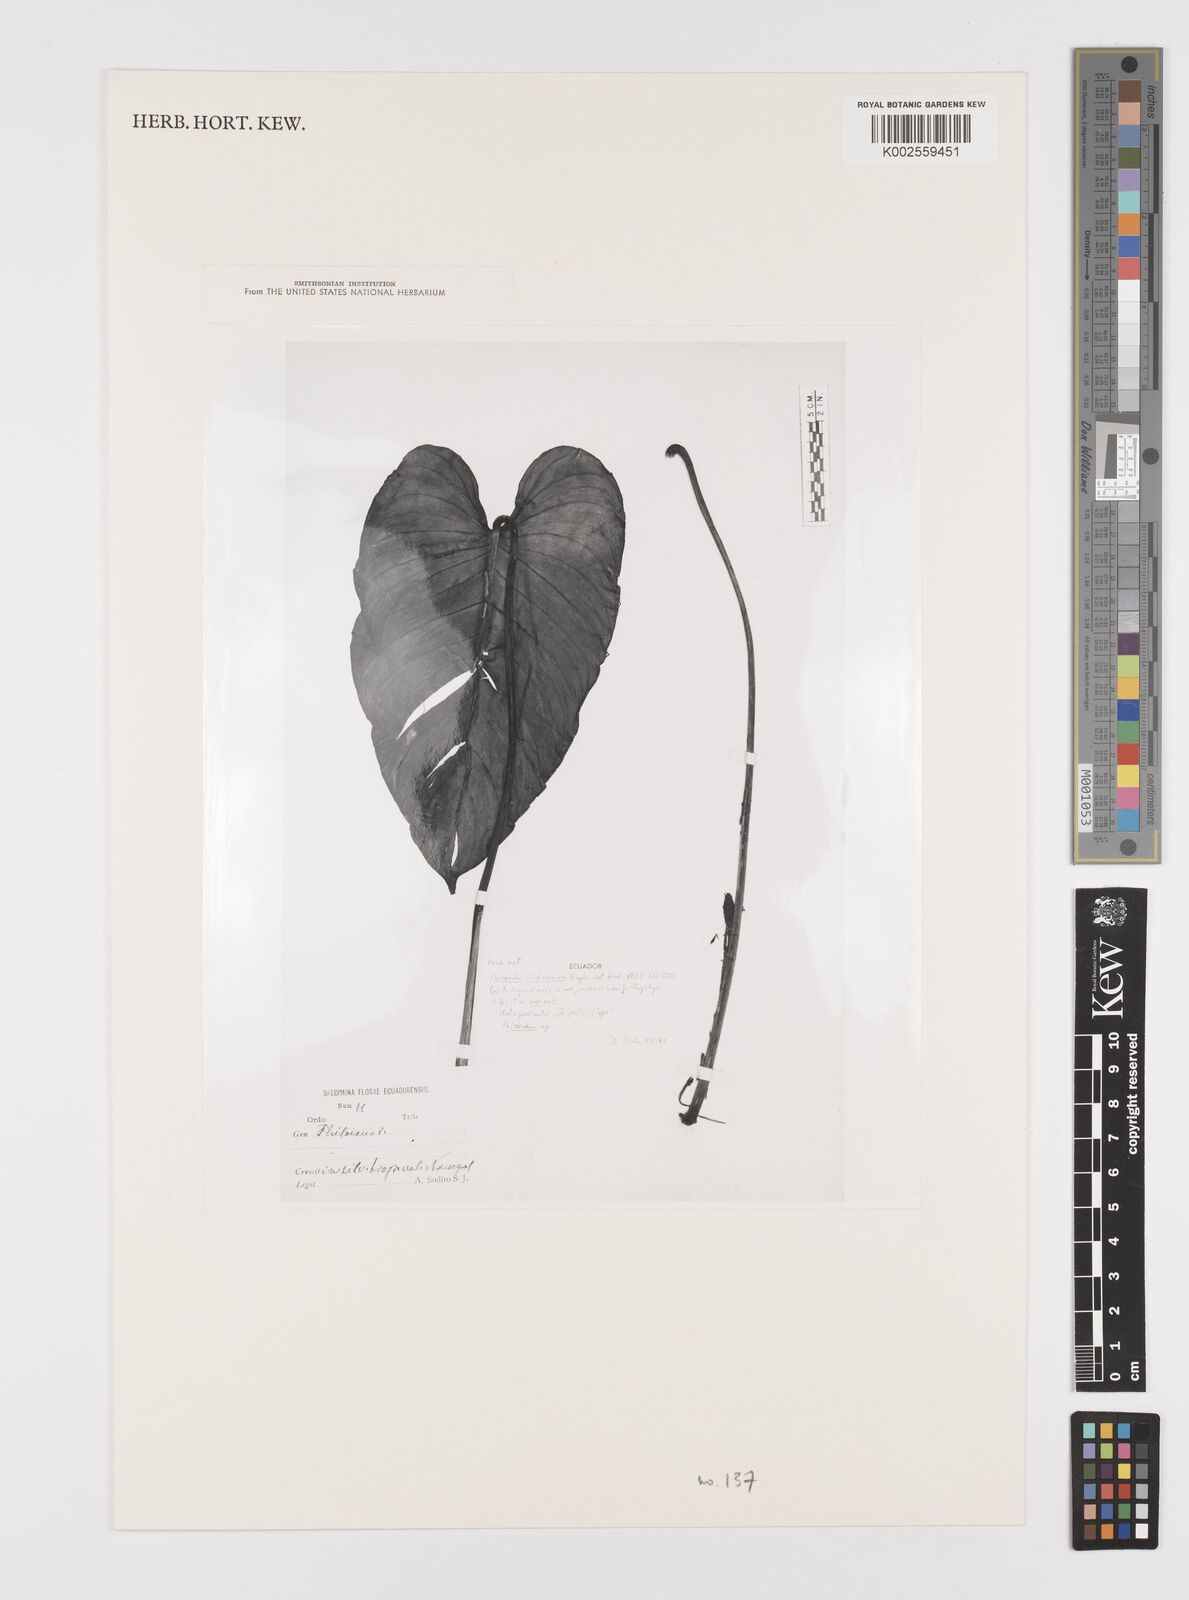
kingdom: Plantae
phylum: Tracheophyta
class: Liliopsida
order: Alismatales
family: Araceae
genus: Philodendron
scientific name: Philodendron validinervium
